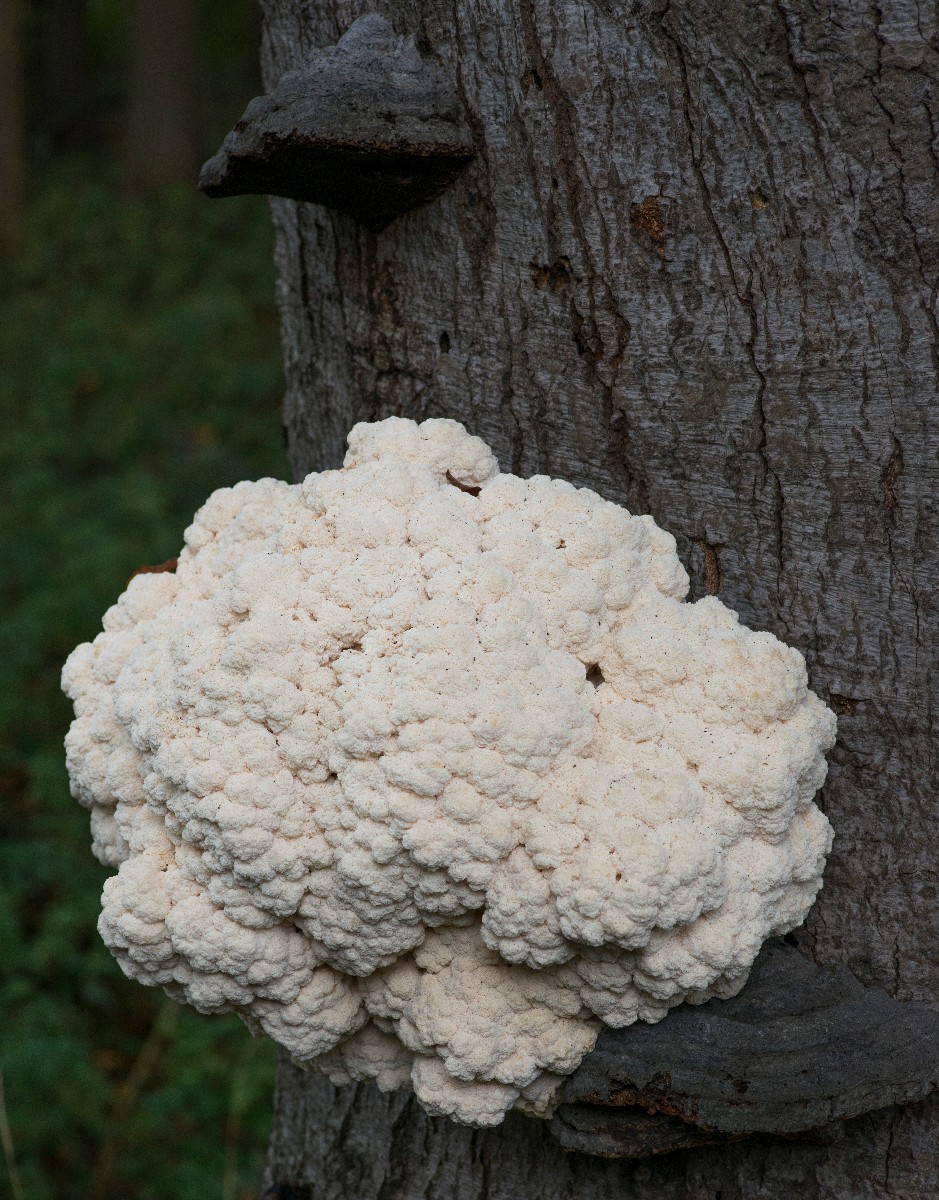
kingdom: Fungi
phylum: Basidiomycota
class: Agaricomycetes
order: Russulales
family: Hericiaceae
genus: Hericium
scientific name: Hericium coralloides
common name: koralpigsvamp
